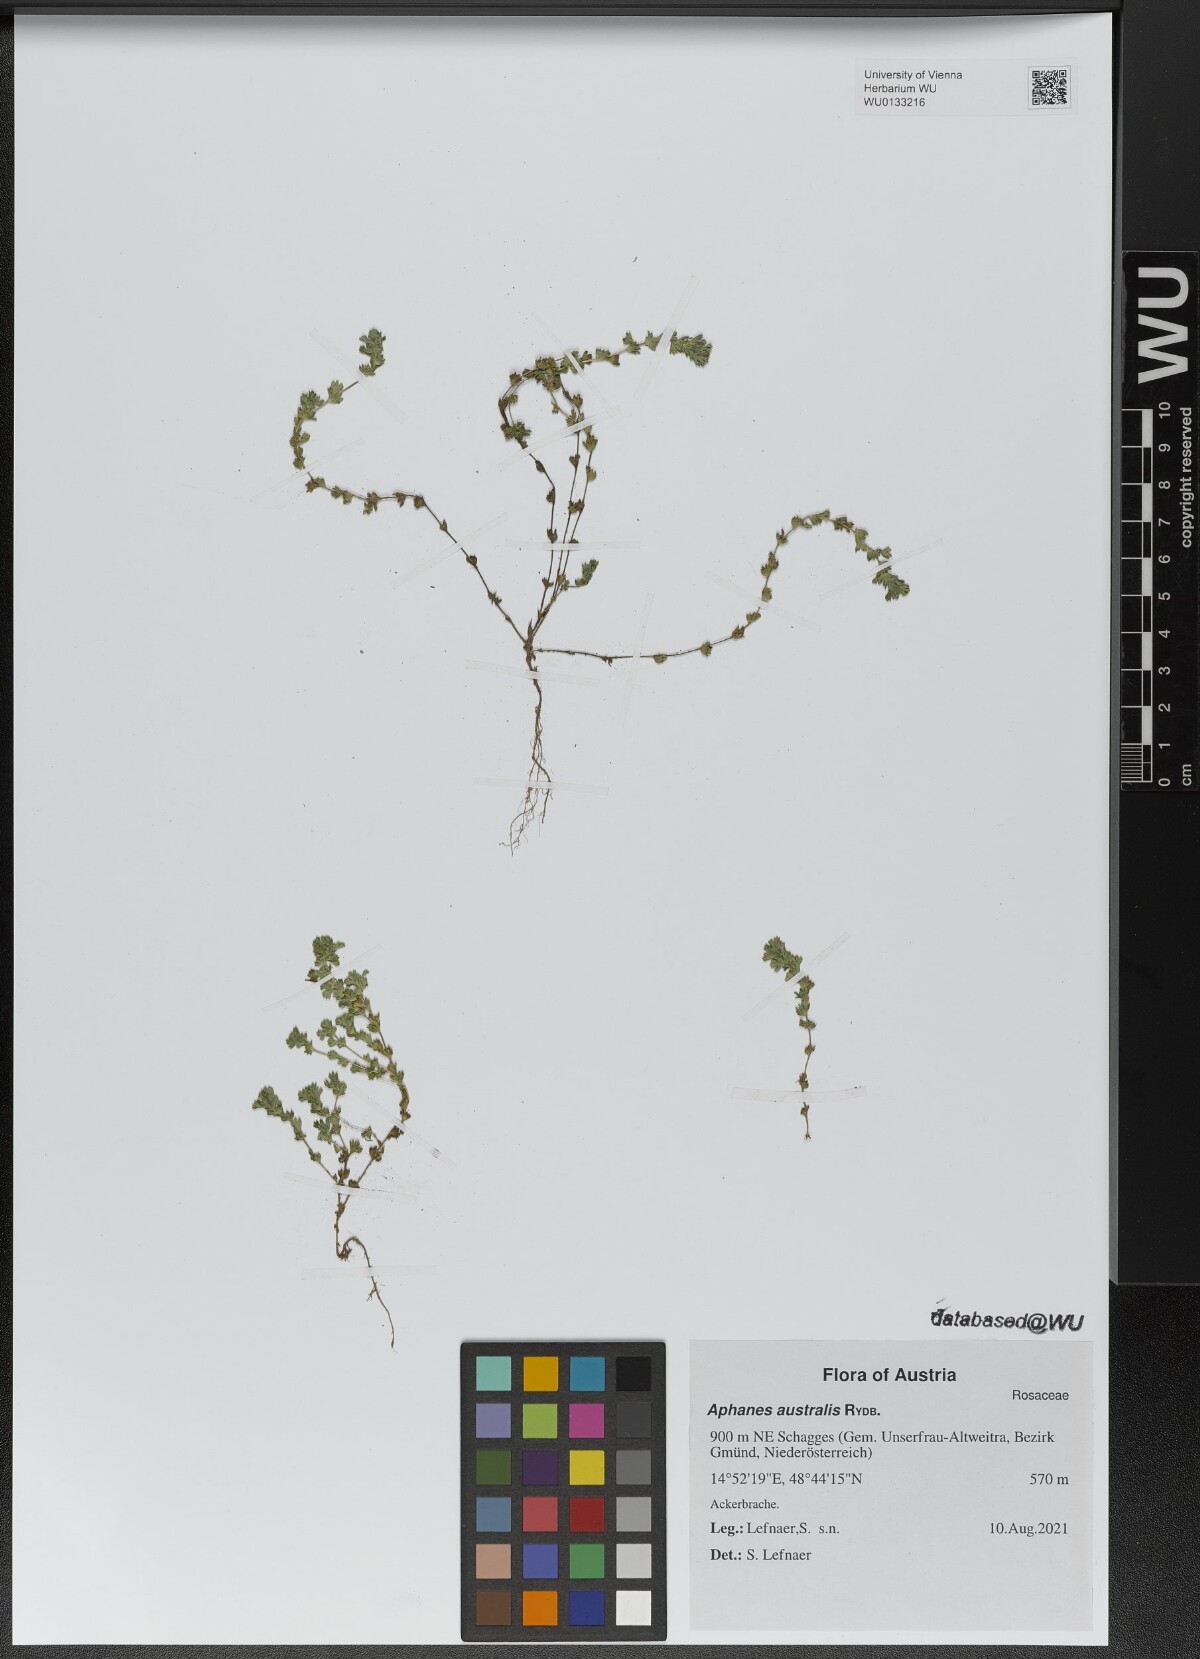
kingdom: Plantae
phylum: Tracheophyta
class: Magnoliopsida
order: Rosales
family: Rosaceae
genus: Aphanes
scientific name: Aphanes australis
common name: Slender parsley-piert
